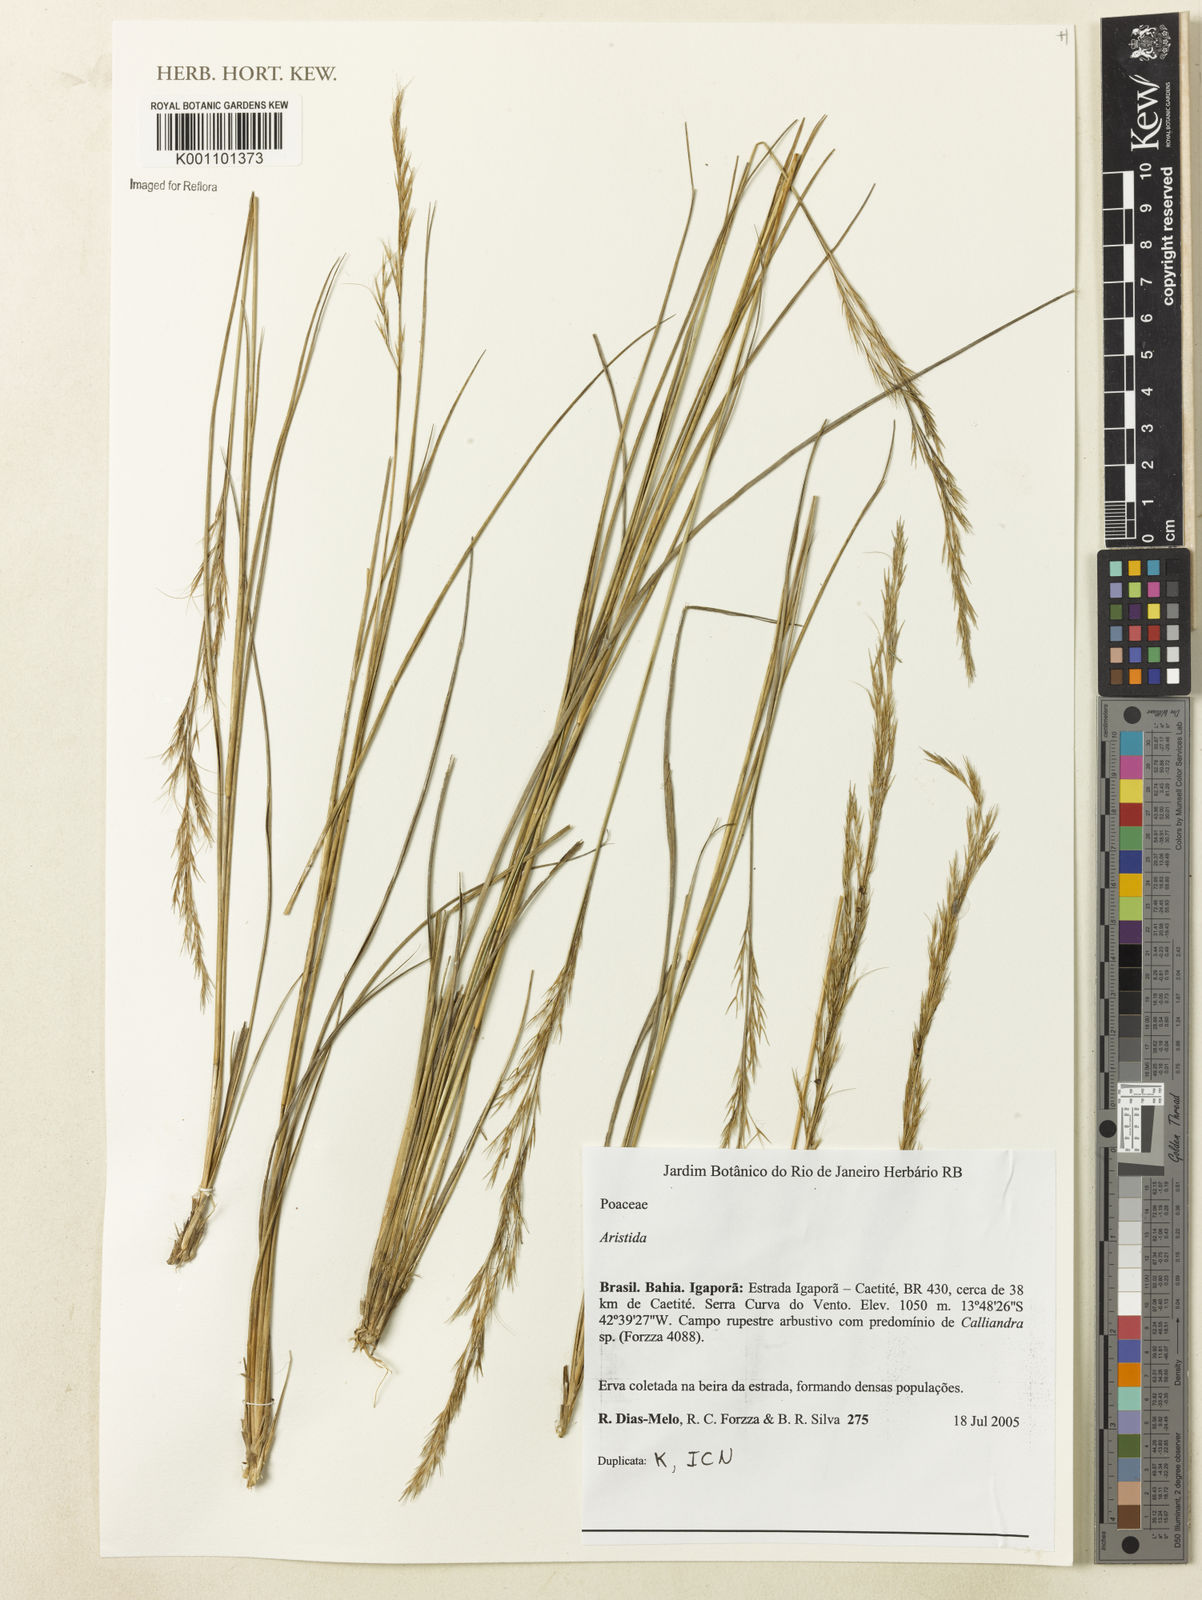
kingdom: Plantae
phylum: Tracheophyta
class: Liliopsida
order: Poales
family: Poaceae
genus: Aristida
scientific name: Aristida
